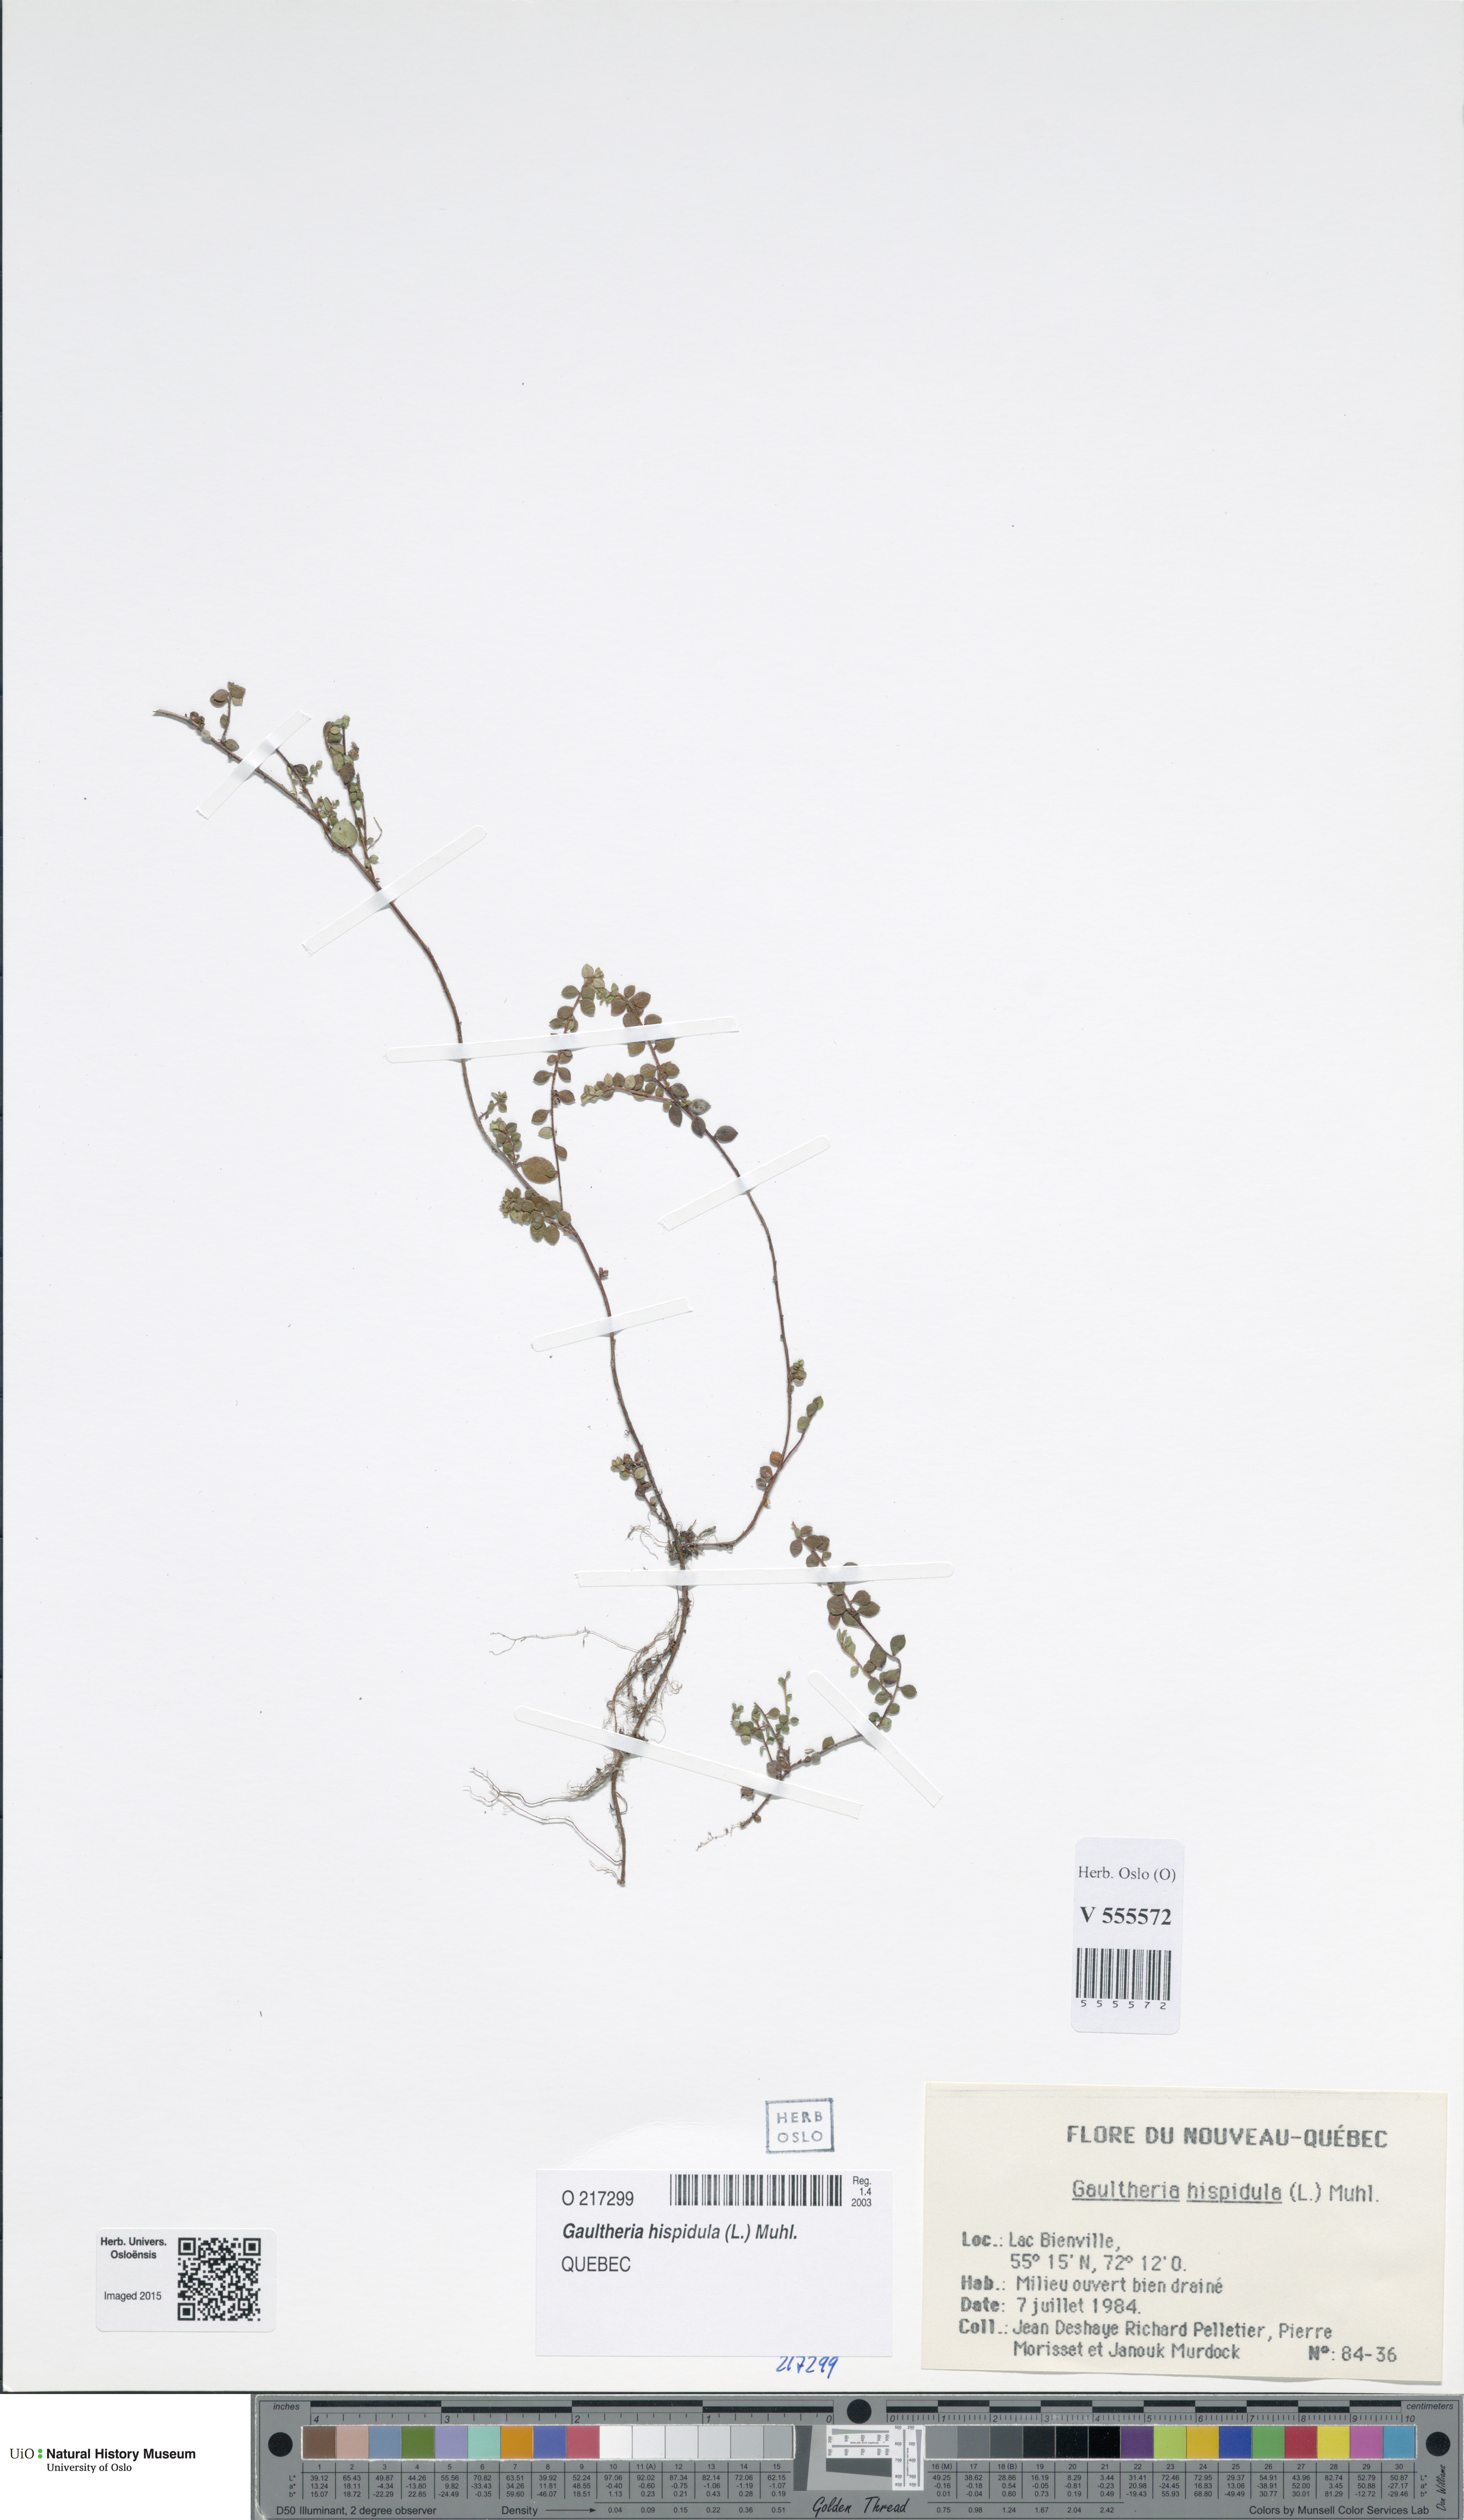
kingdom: Plantae
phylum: Tracheophyta
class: Magnoliopsida
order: Ericales
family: Ericaceae
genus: Gaultheria
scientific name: Gaultheria hispidula
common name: Cancer wintergreen
